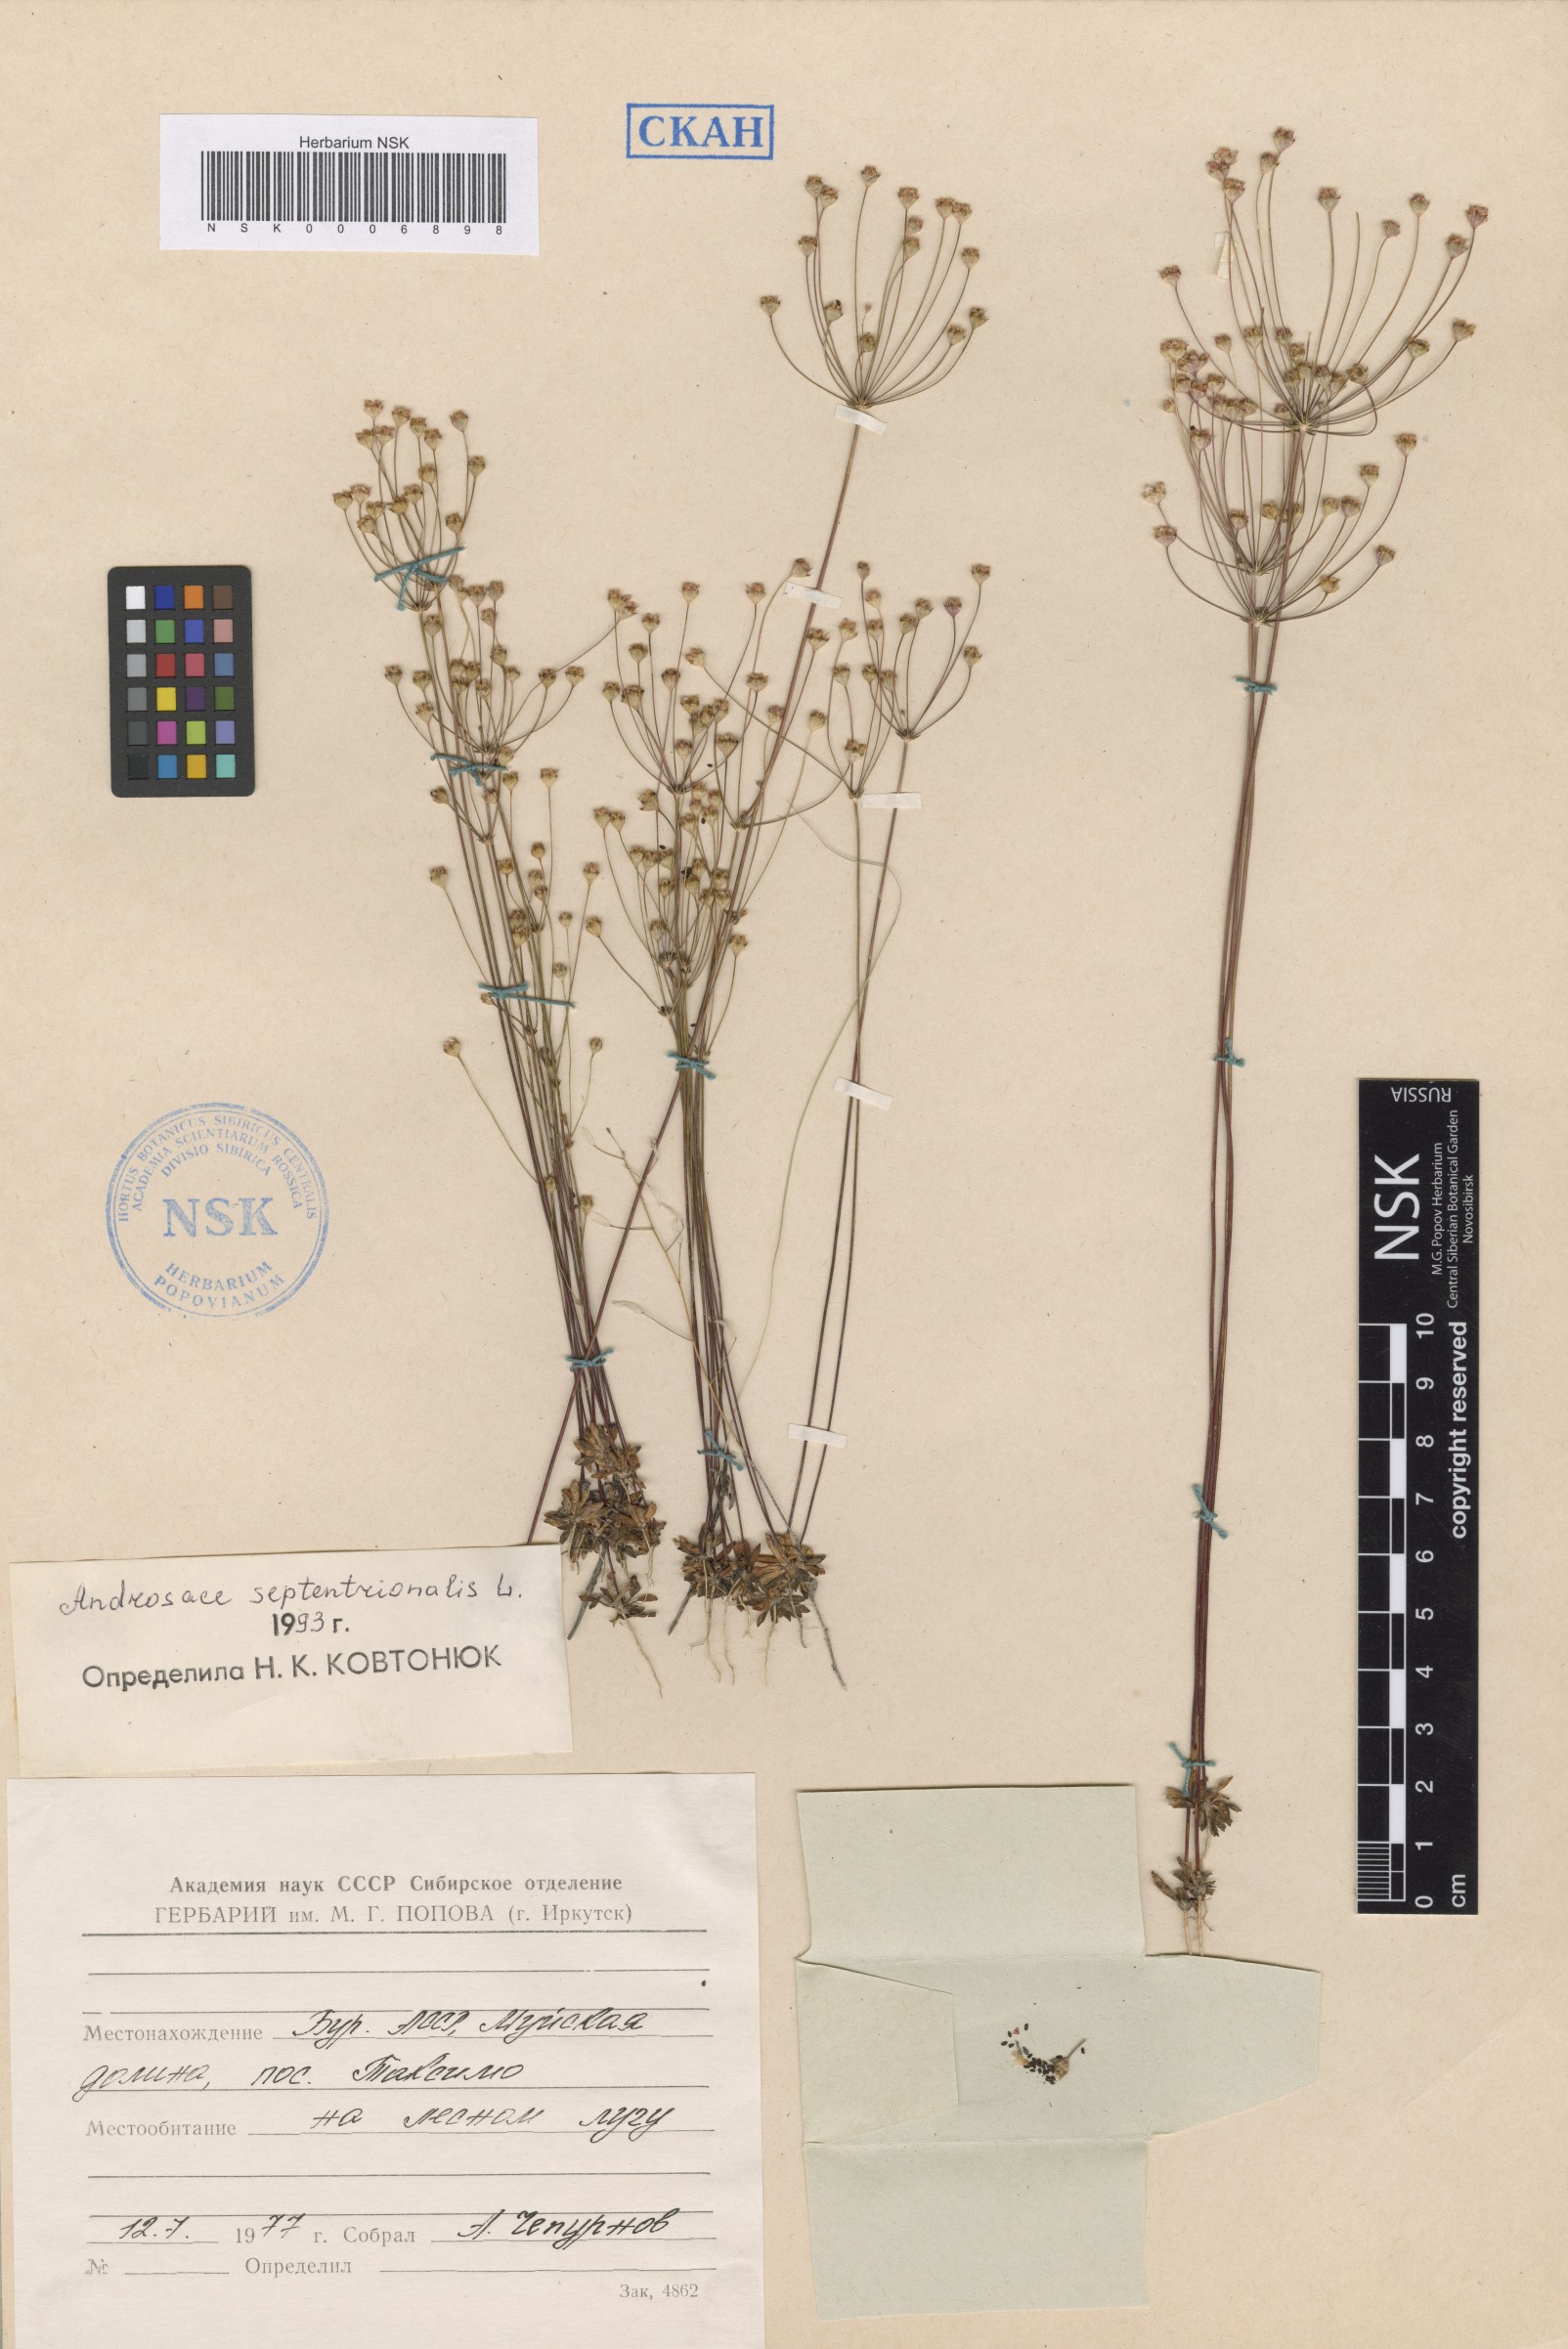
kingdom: Plantae
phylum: Tracheophyta
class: Magnoliopsida
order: Ericales
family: Primulaceae
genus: Androsace
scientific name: Androsace septentrionalis
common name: Hairy northern fairy-candelabra
